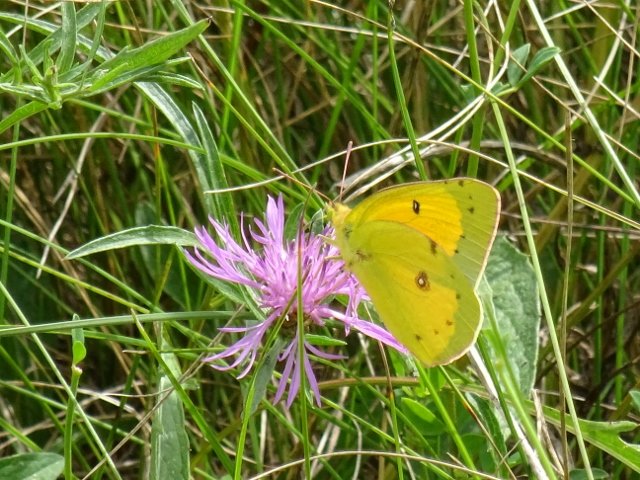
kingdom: Animalia
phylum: Arthropoda
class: Insecta
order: Lepidoptera
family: Pieridae
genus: Colias
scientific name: Colias eurytheme
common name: Orange Sulphur
